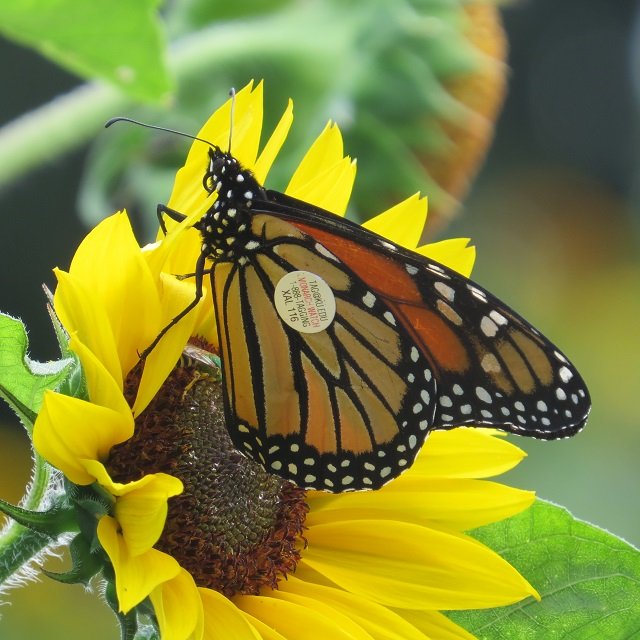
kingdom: Animalia
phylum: Arthropoda
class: Insecta
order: Lepidoptera
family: Nymphalidae
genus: Danaus
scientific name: Danaus plexippus
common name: Monarch
